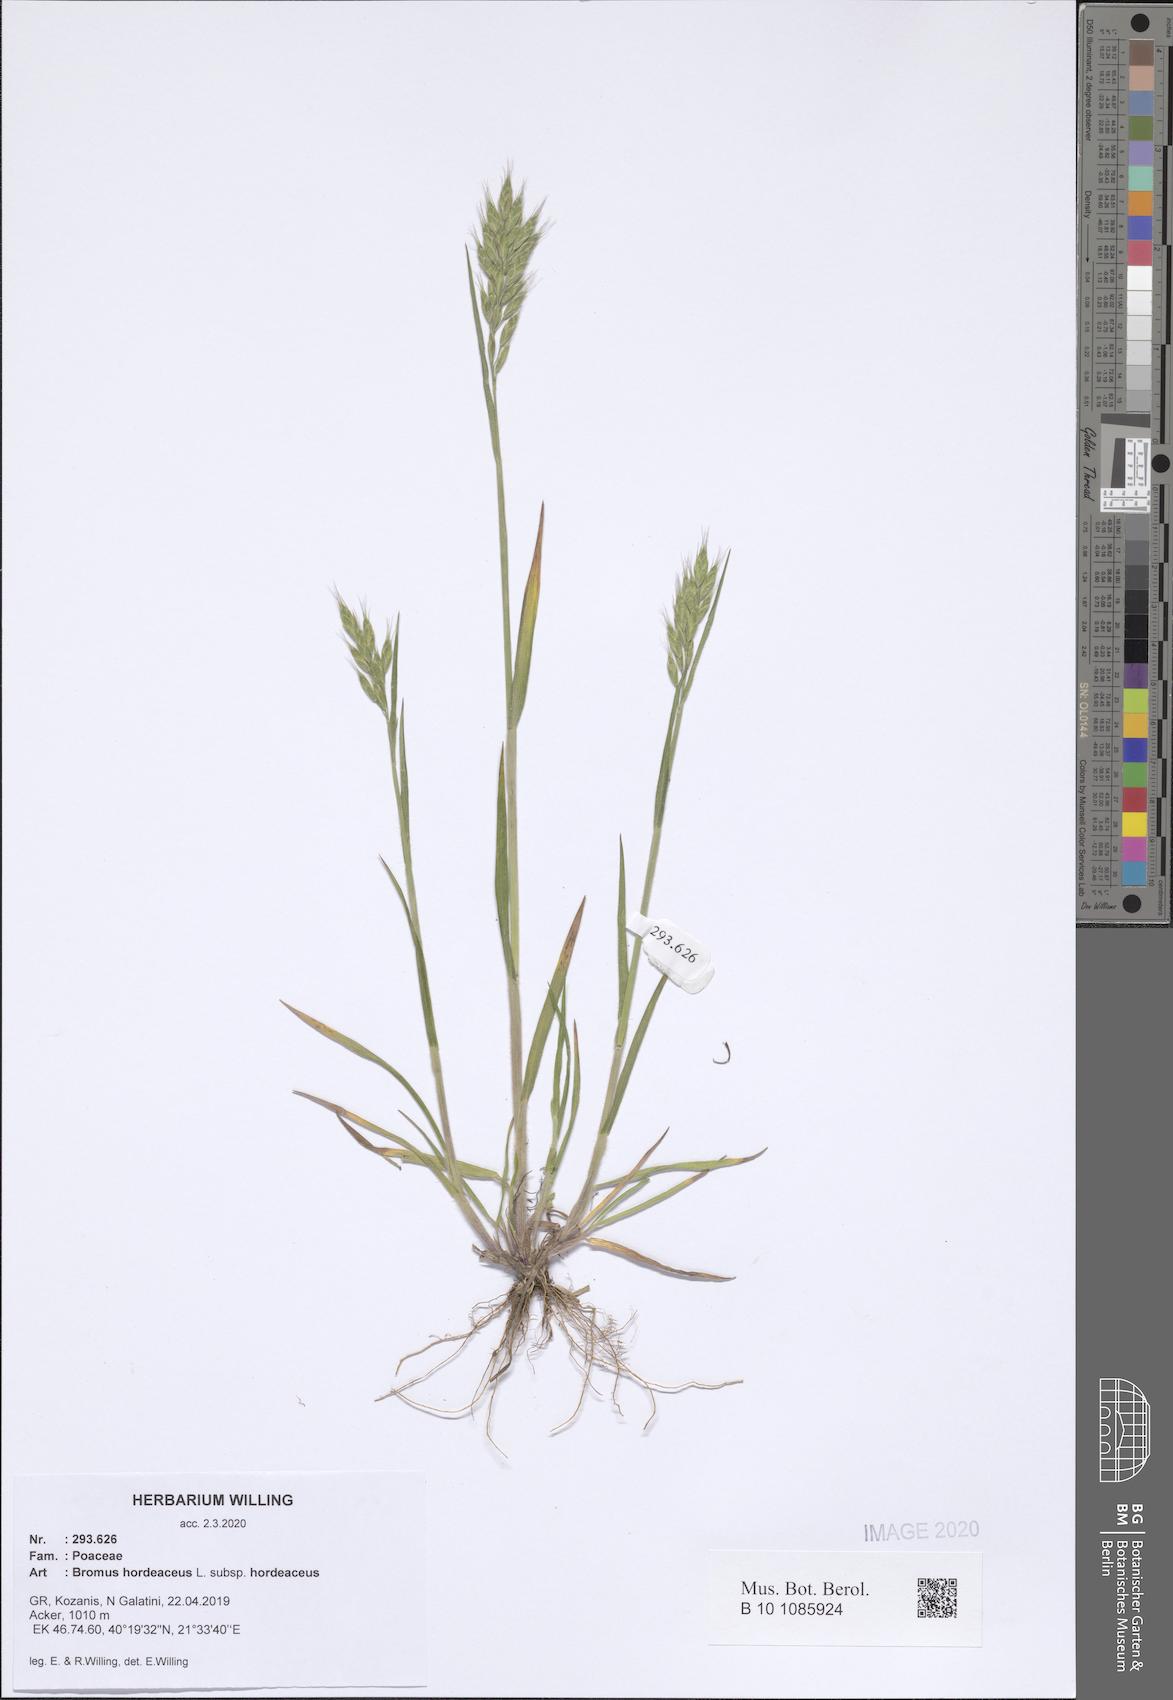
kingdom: Plantae
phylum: Tracheophyta
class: Liliopsida
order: Poales
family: Poaceae
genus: Bromus
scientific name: Bromus hordeaceus
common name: Soft brome
